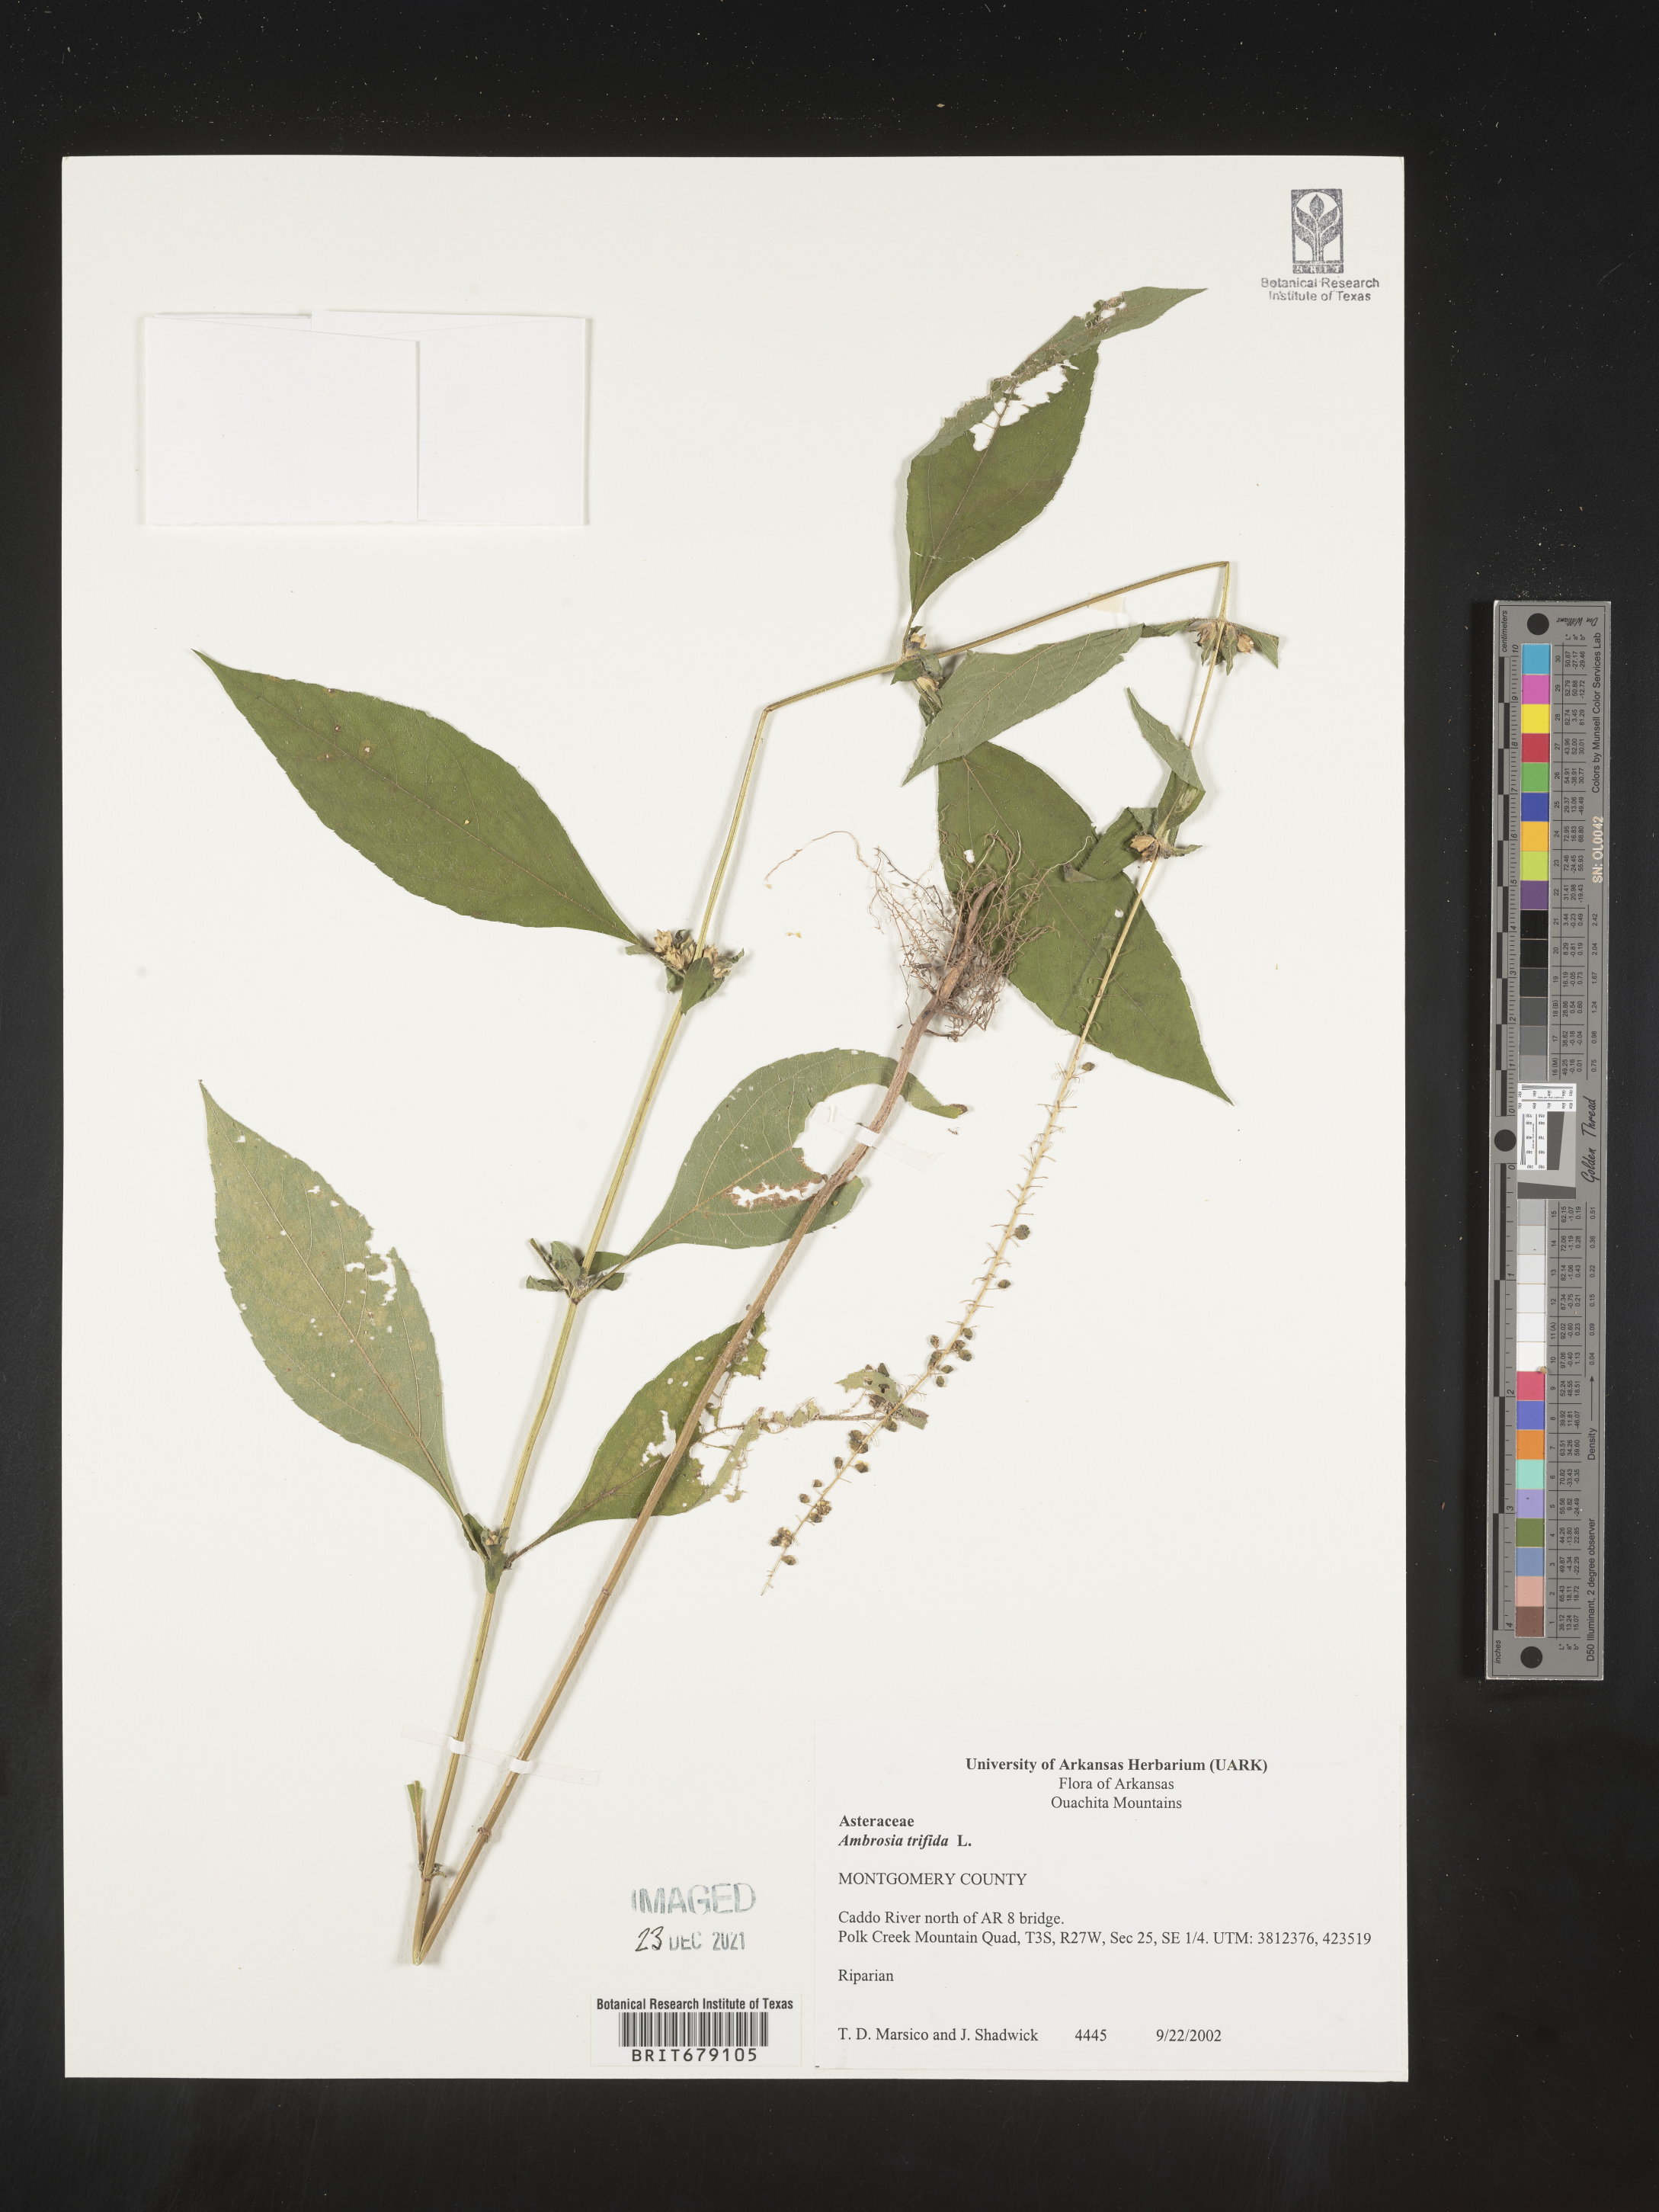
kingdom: Plantae
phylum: Tracheophyta
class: Magnoliopsida
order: Asterales
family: Asteraceae
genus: Ambrosia
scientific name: Ambrosia trifida
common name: Giant ragweed
